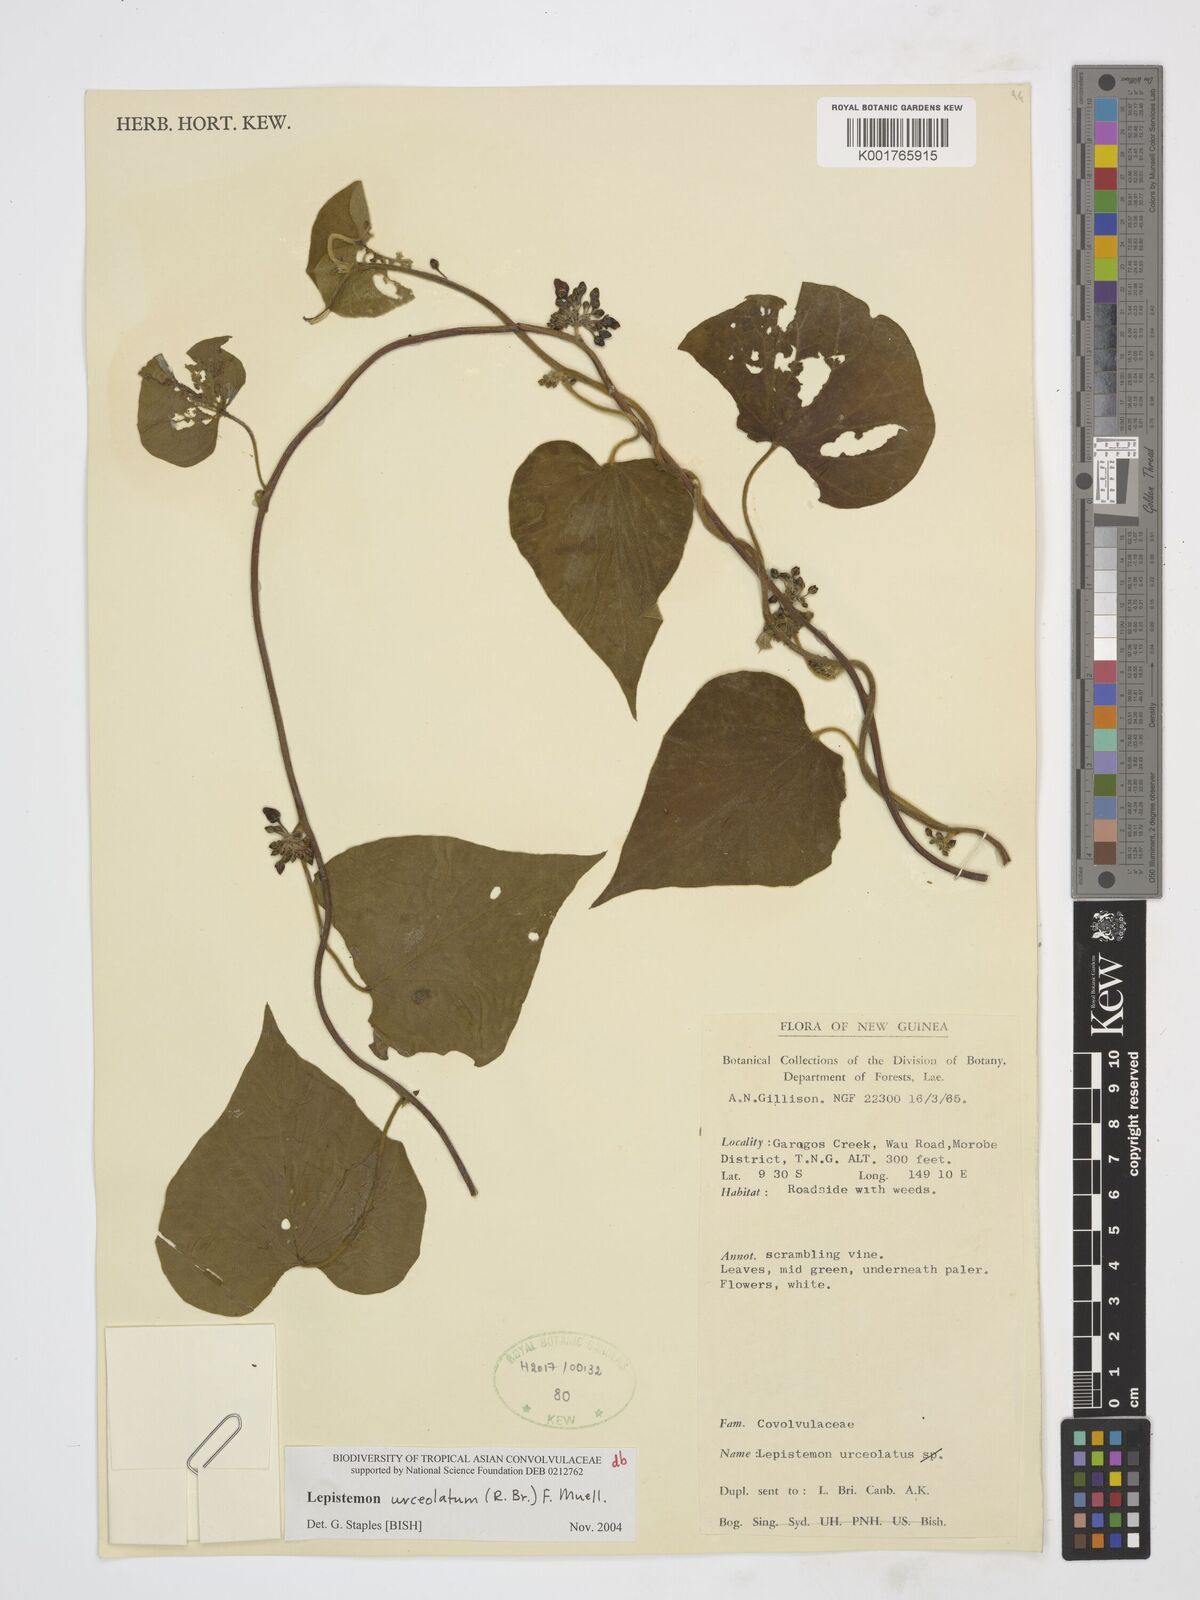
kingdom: Plantae
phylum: Tracheophyta
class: Magnoliopsida
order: Solanales
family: Convolvulaceae
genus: Lepistemon
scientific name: Lepistemon urceolatus
